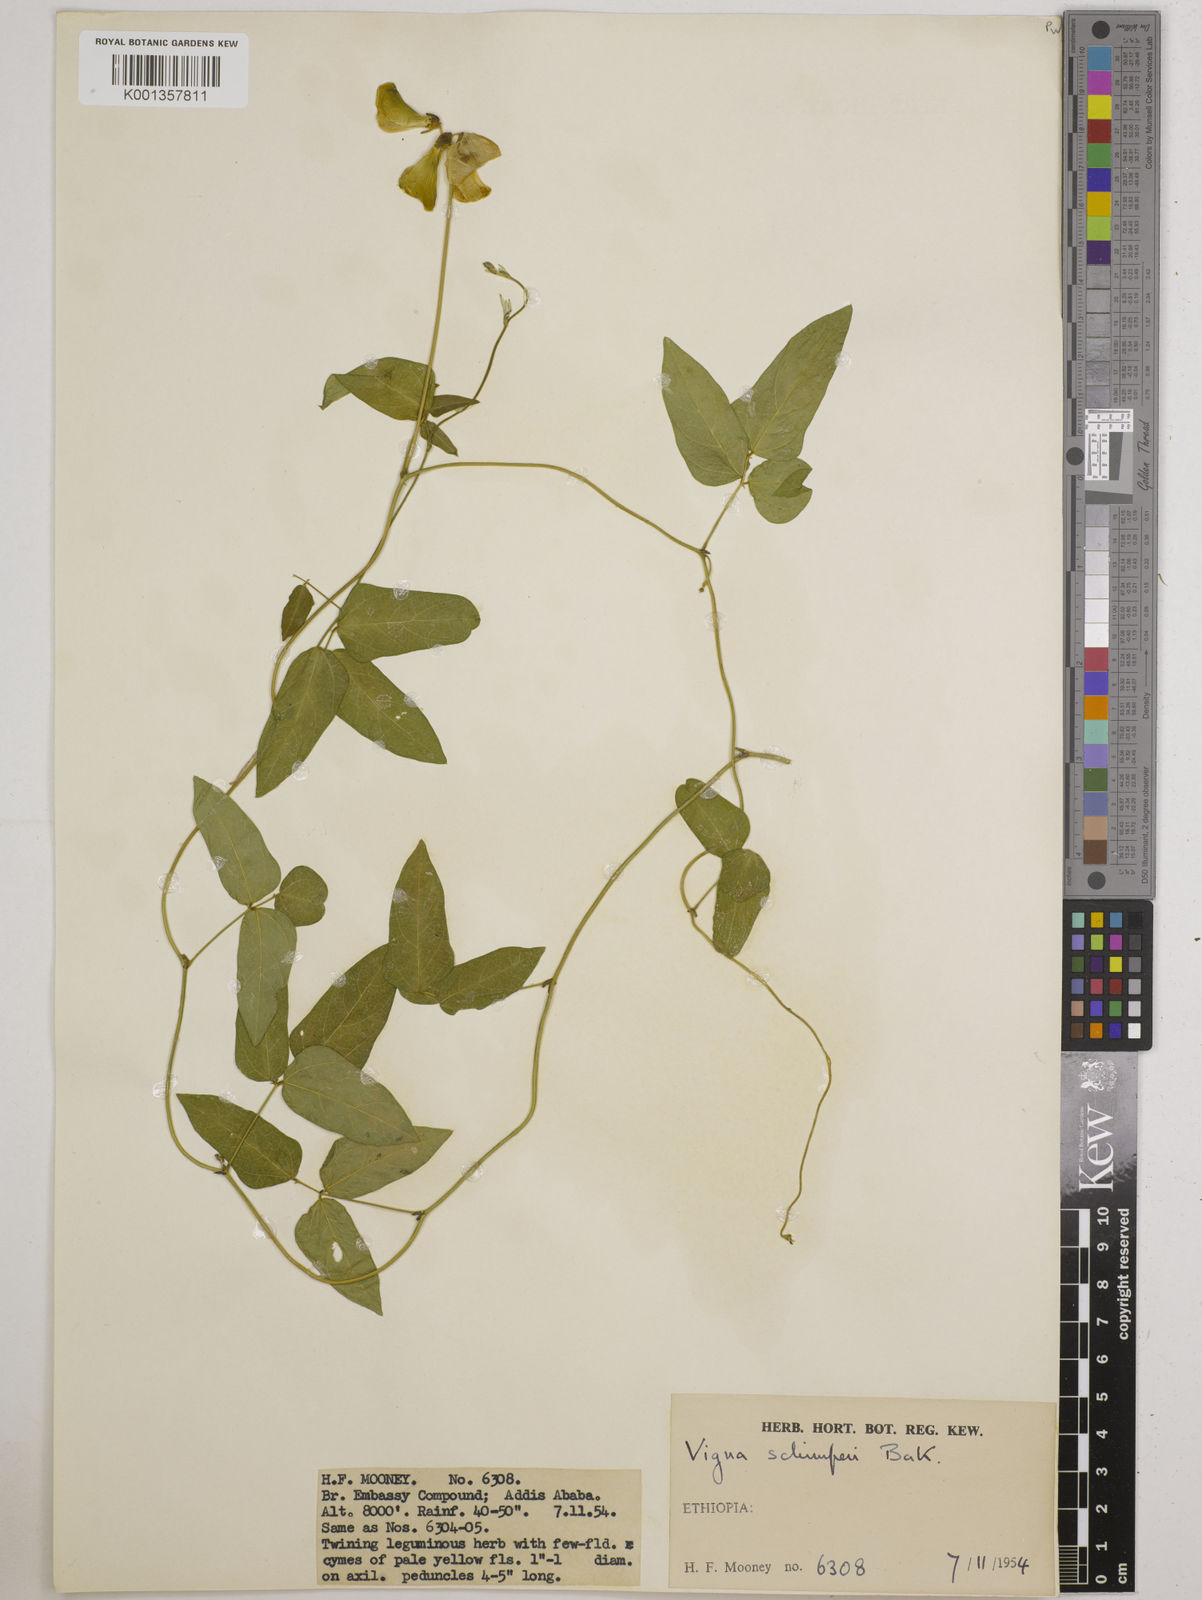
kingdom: Plantae
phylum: Tracheophyta
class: Magnoliopsida
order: Fabales
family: Fabaceae
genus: Vigna
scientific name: Vigna schimperi
